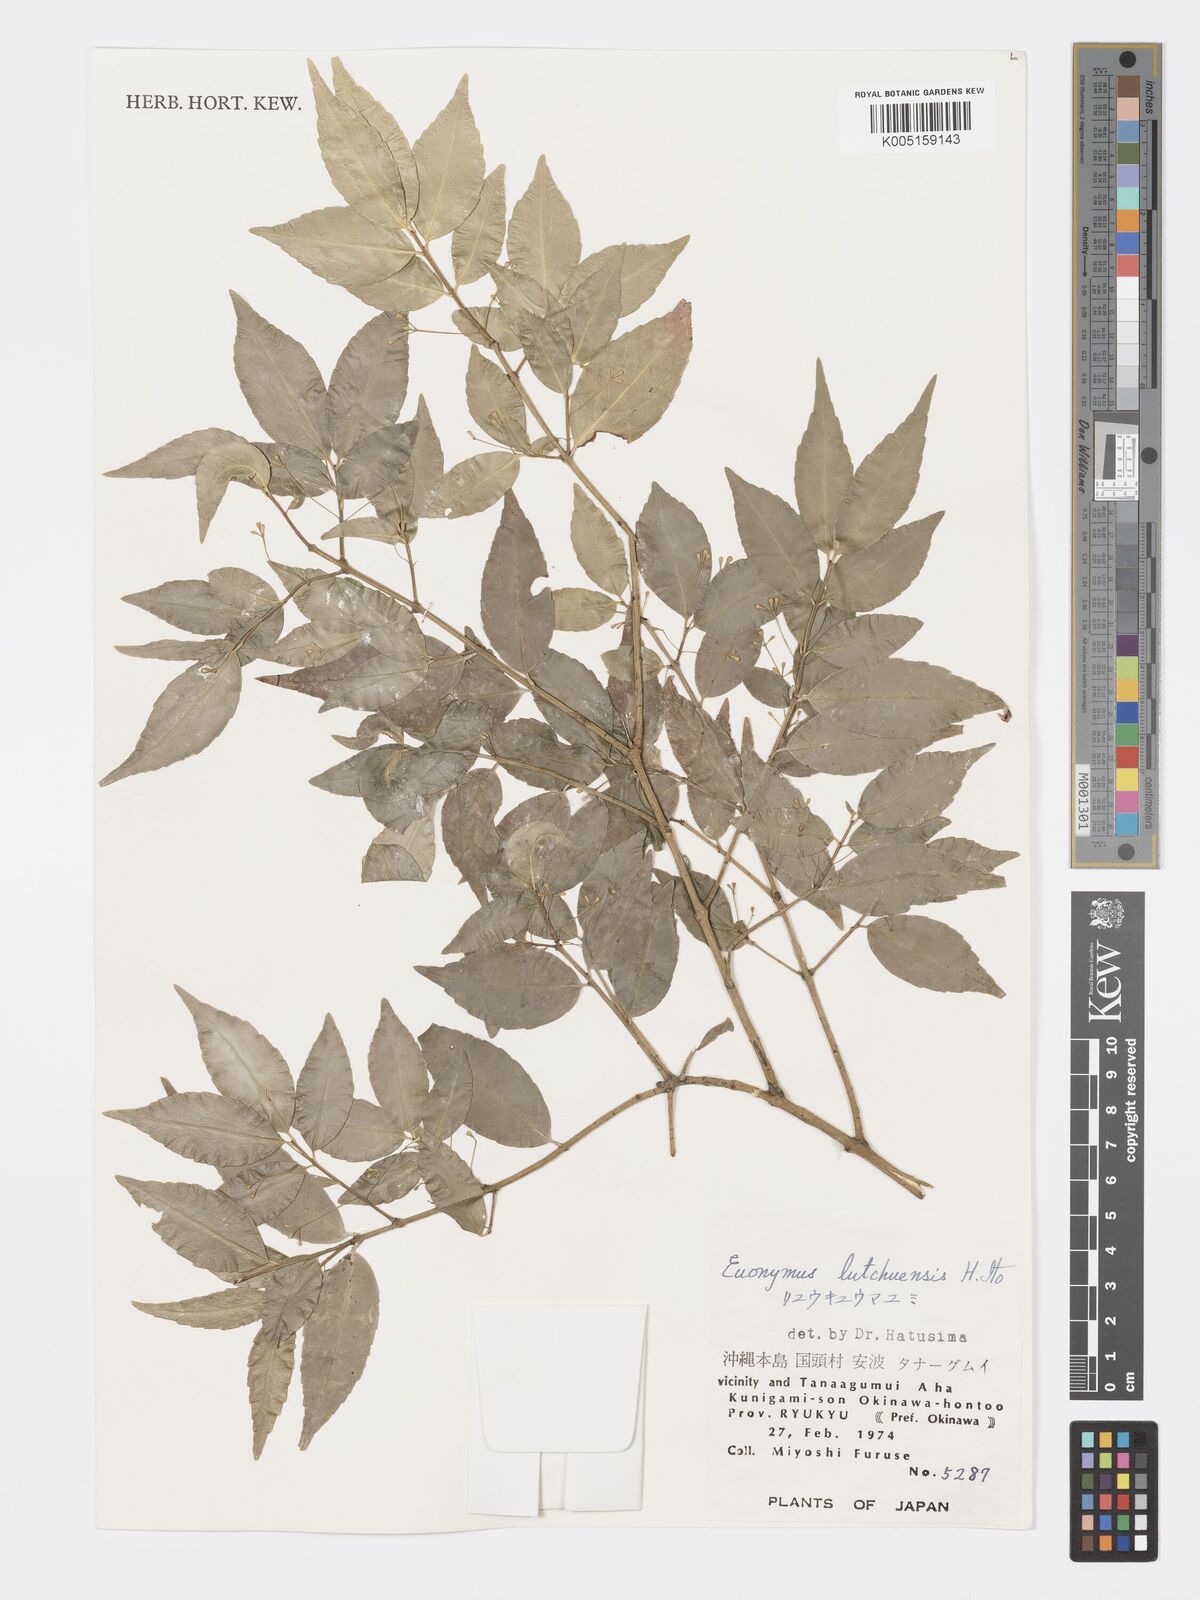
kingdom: Plantae
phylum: Tracheophyta
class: Magnoliopsida
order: Celastrales
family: Celastraceae
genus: Euonymus
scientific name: Euonymus lutchuensis
